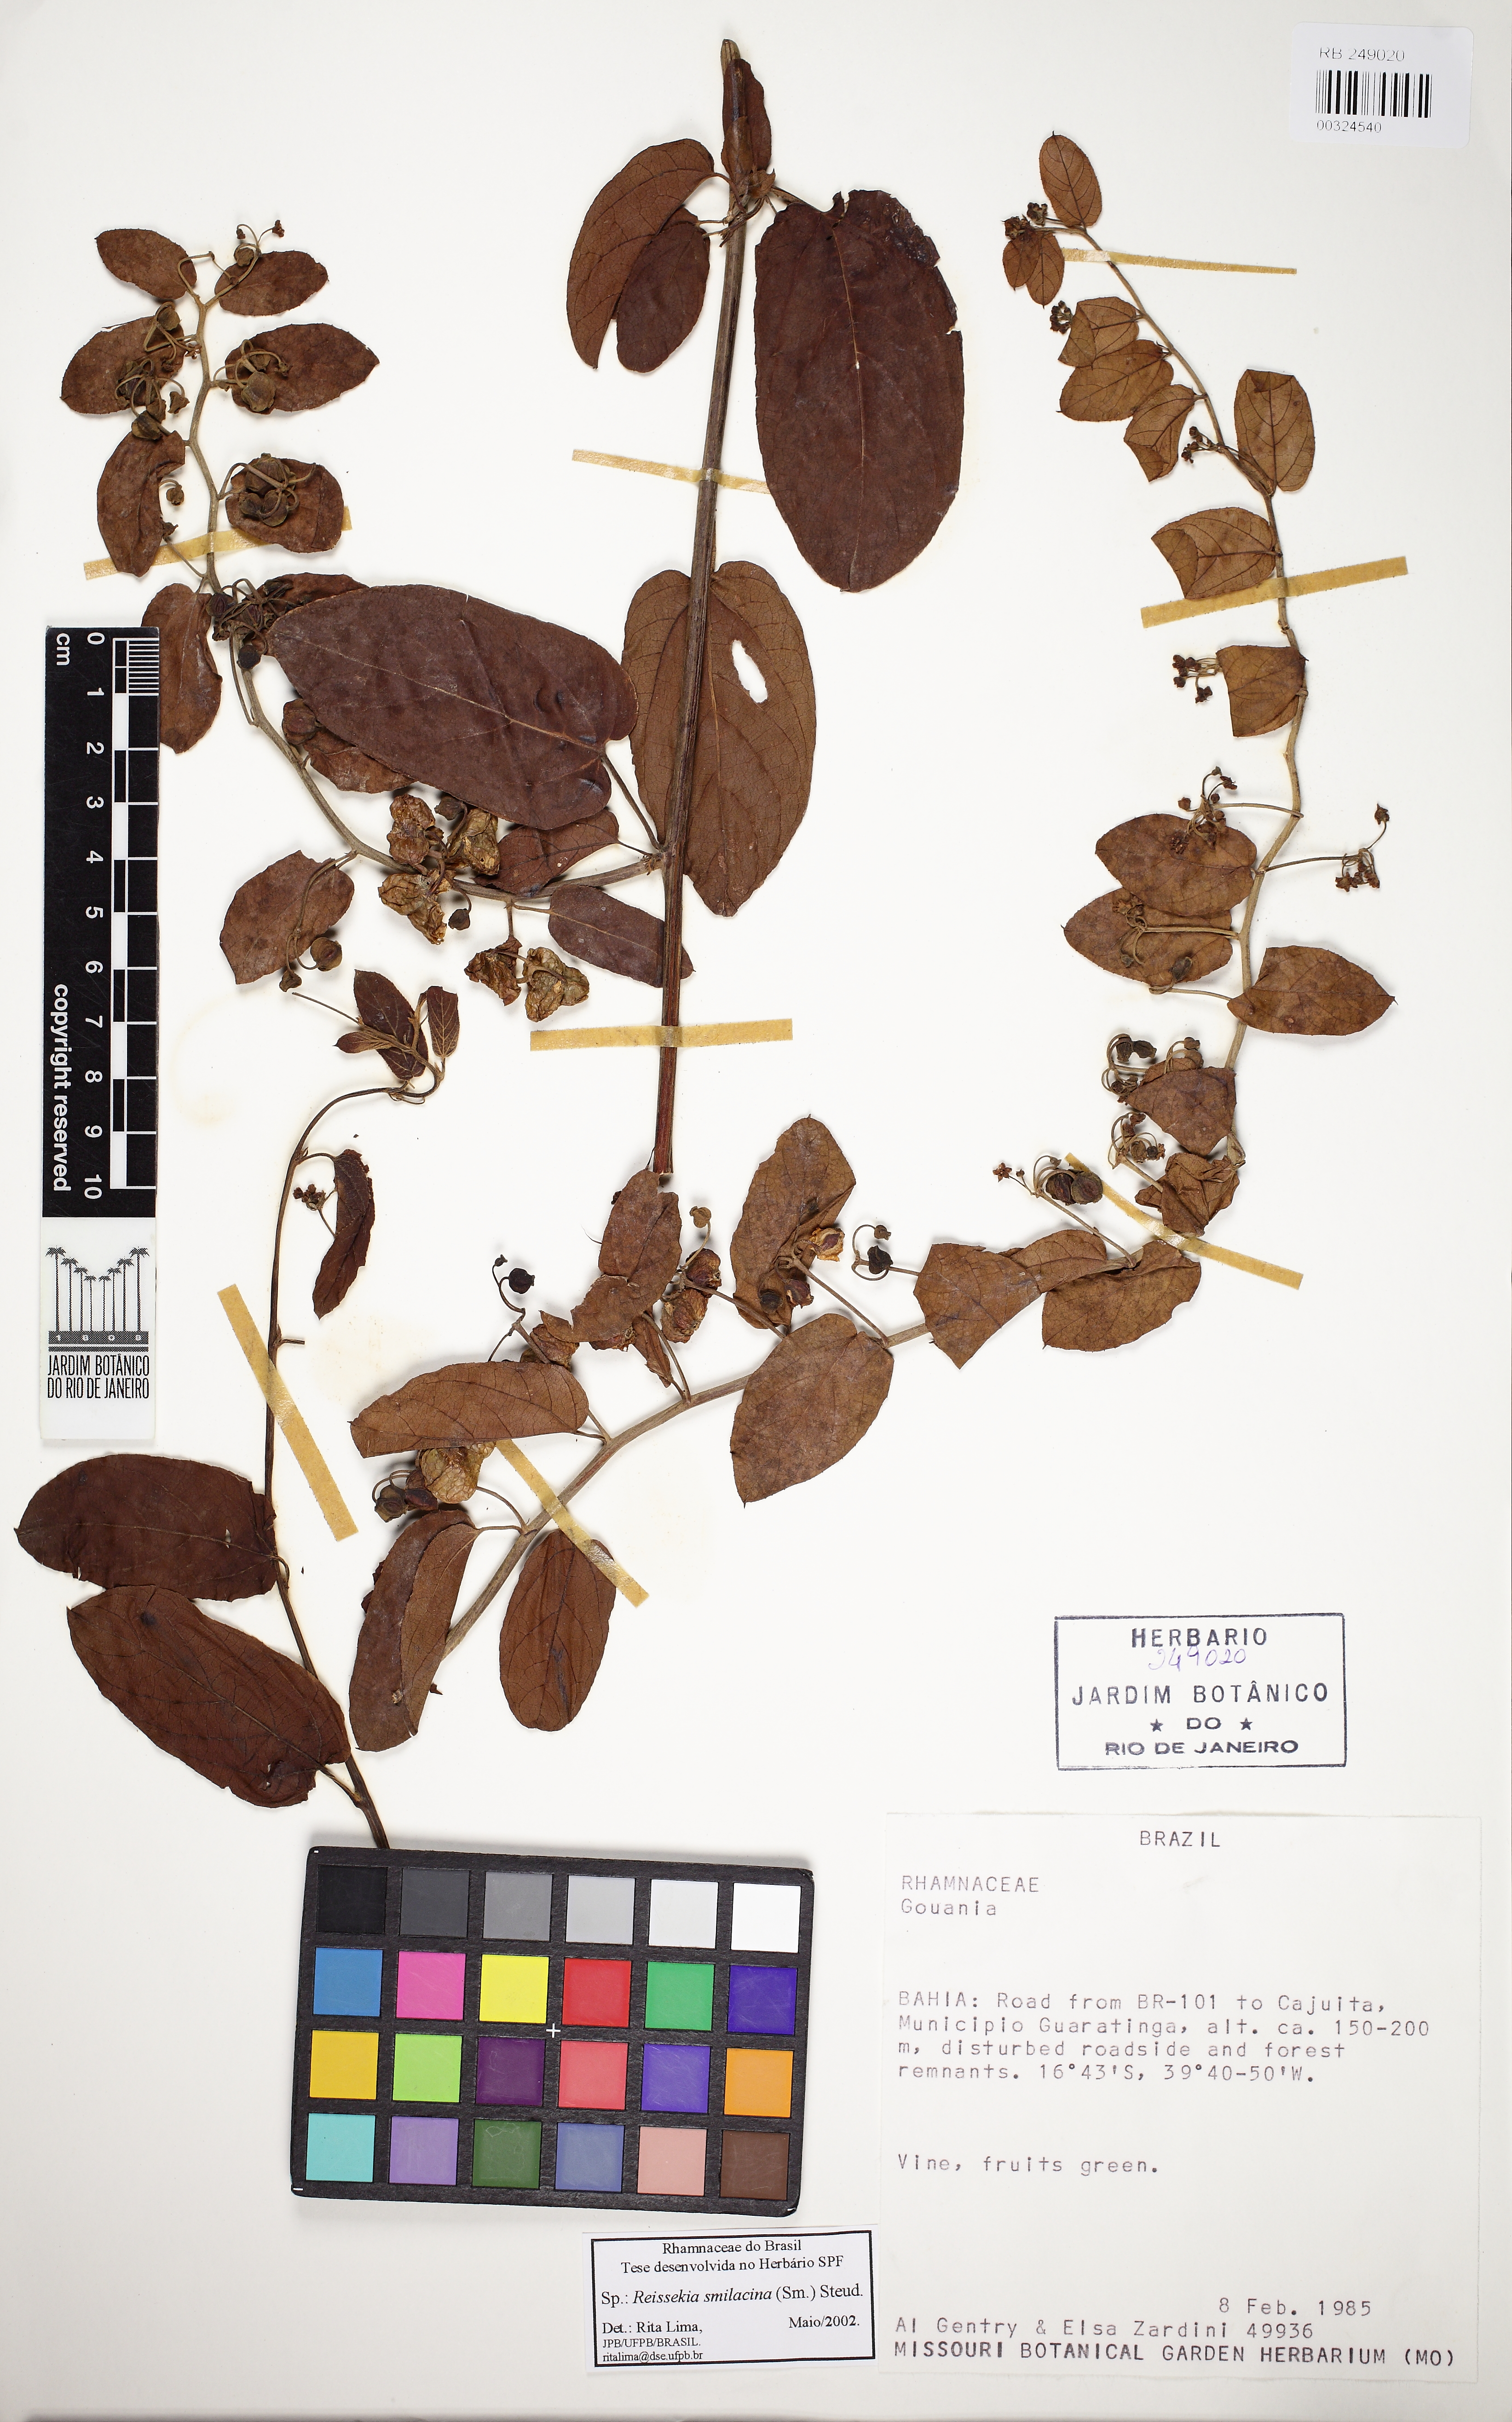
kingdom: Plantae
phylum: Tracheophyta
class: Magnoliopsida
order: Rosales
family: Rhamnaceae
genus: Reissekia
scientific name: Reissekia smilacina
